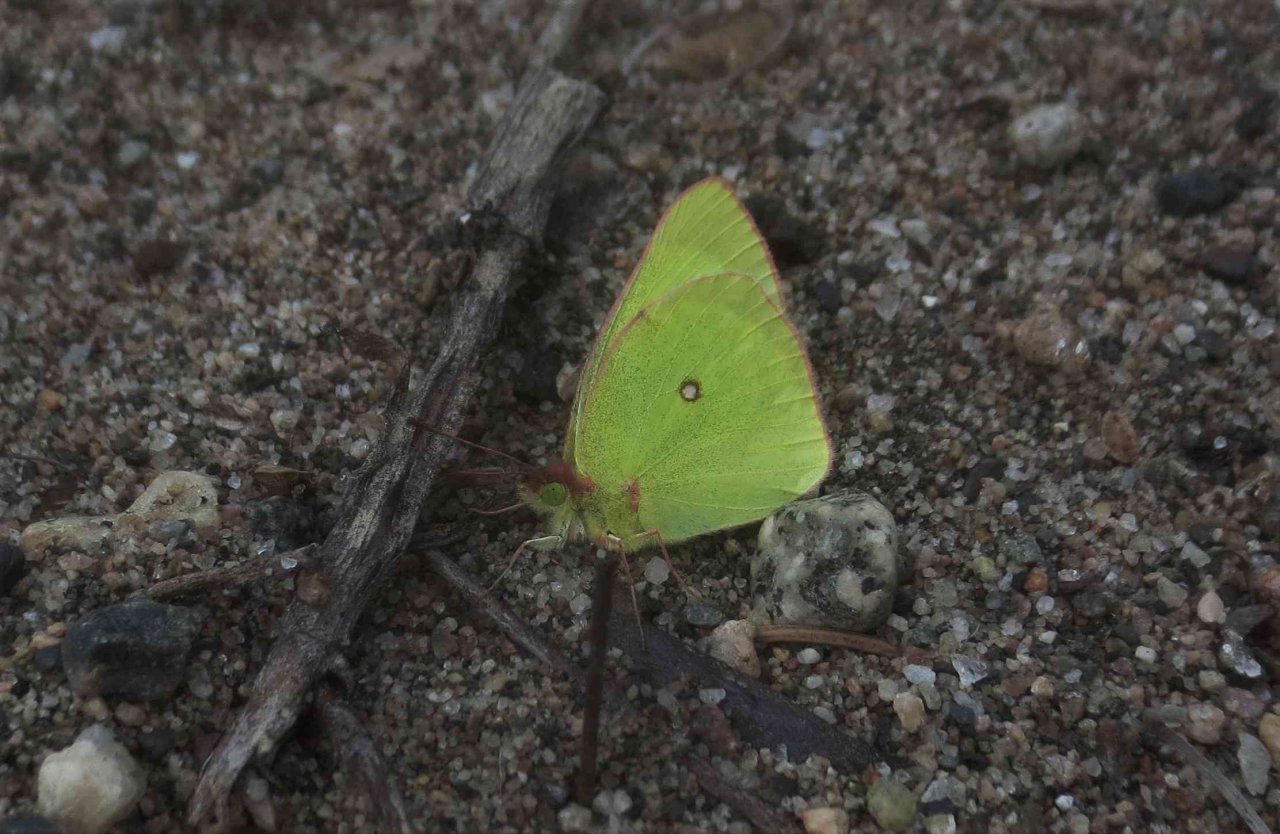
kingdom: Animalia
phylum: Arthropoda
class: Insecta
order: Lepidoptera
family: Pieridae
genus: Colias
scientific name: Colias interior
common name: Pink-edged Sulphur
